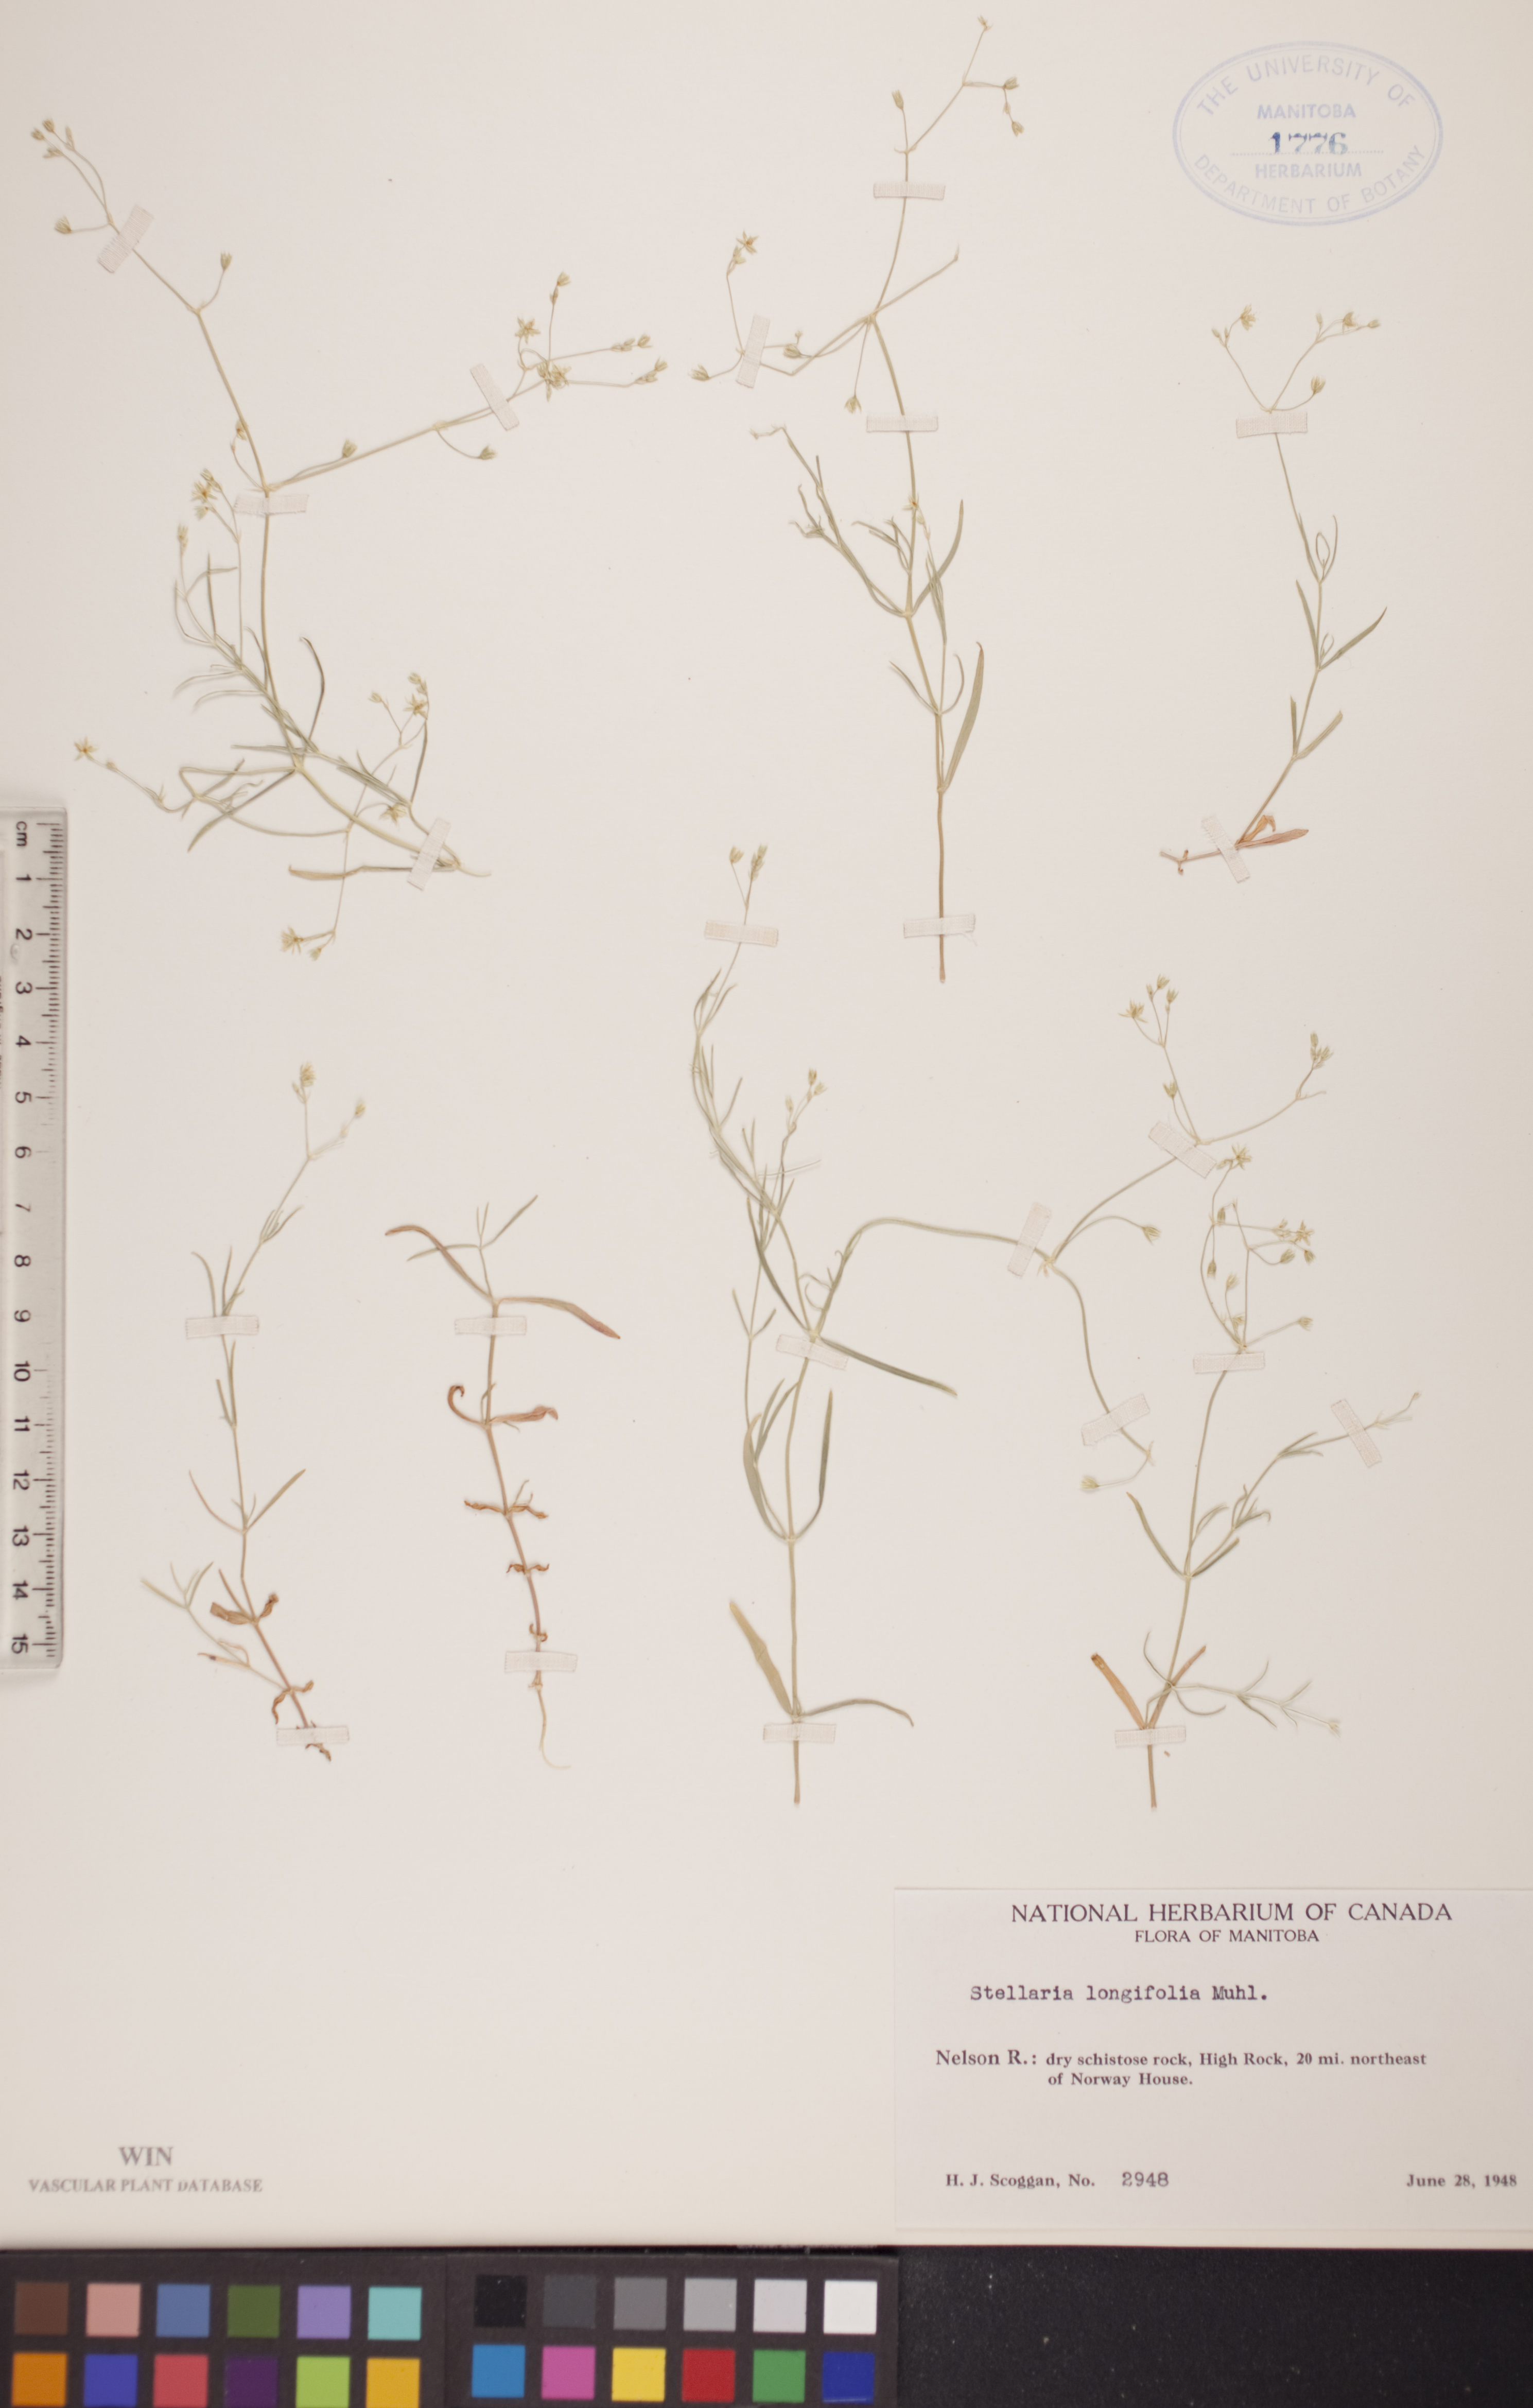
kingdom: Plantae
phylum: Tracheophyta
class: Magnoliopsida
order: Caryophyllales
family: Caryophyllaceae
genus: Stellaria
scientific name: Stellaria longifolia
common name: Long-leaved chickweed
